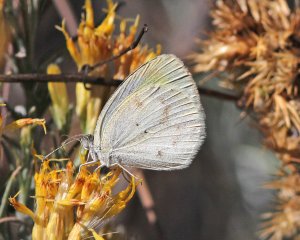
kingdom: Animalia
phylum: Arthropoda
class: Insecta
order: Lepidoptera
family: Pieridae
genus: Eurema
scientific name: Eurema daira
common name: Barred Yellow
